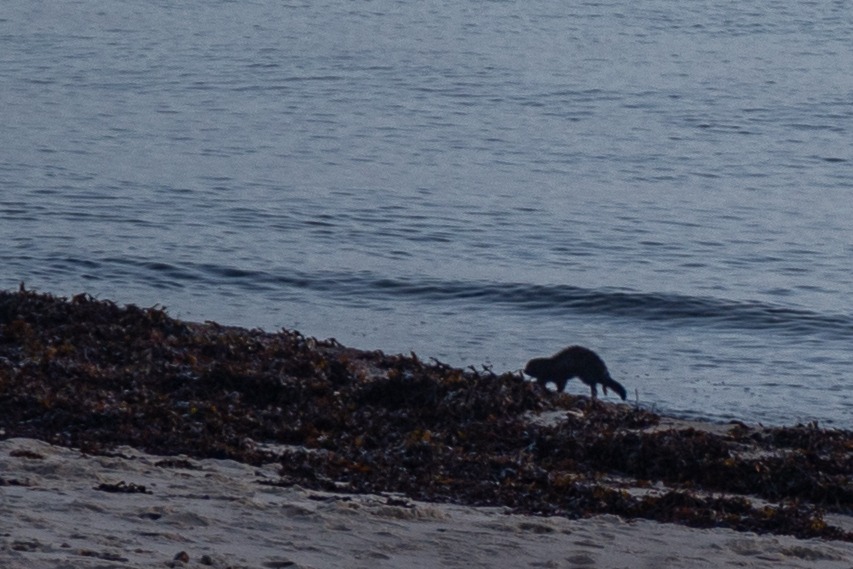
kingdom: Animalia
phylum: Chordata
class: Mammalia
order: Carnivora
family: Mustelidae
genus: Mustela
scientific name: Mustela vison
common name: Mink
